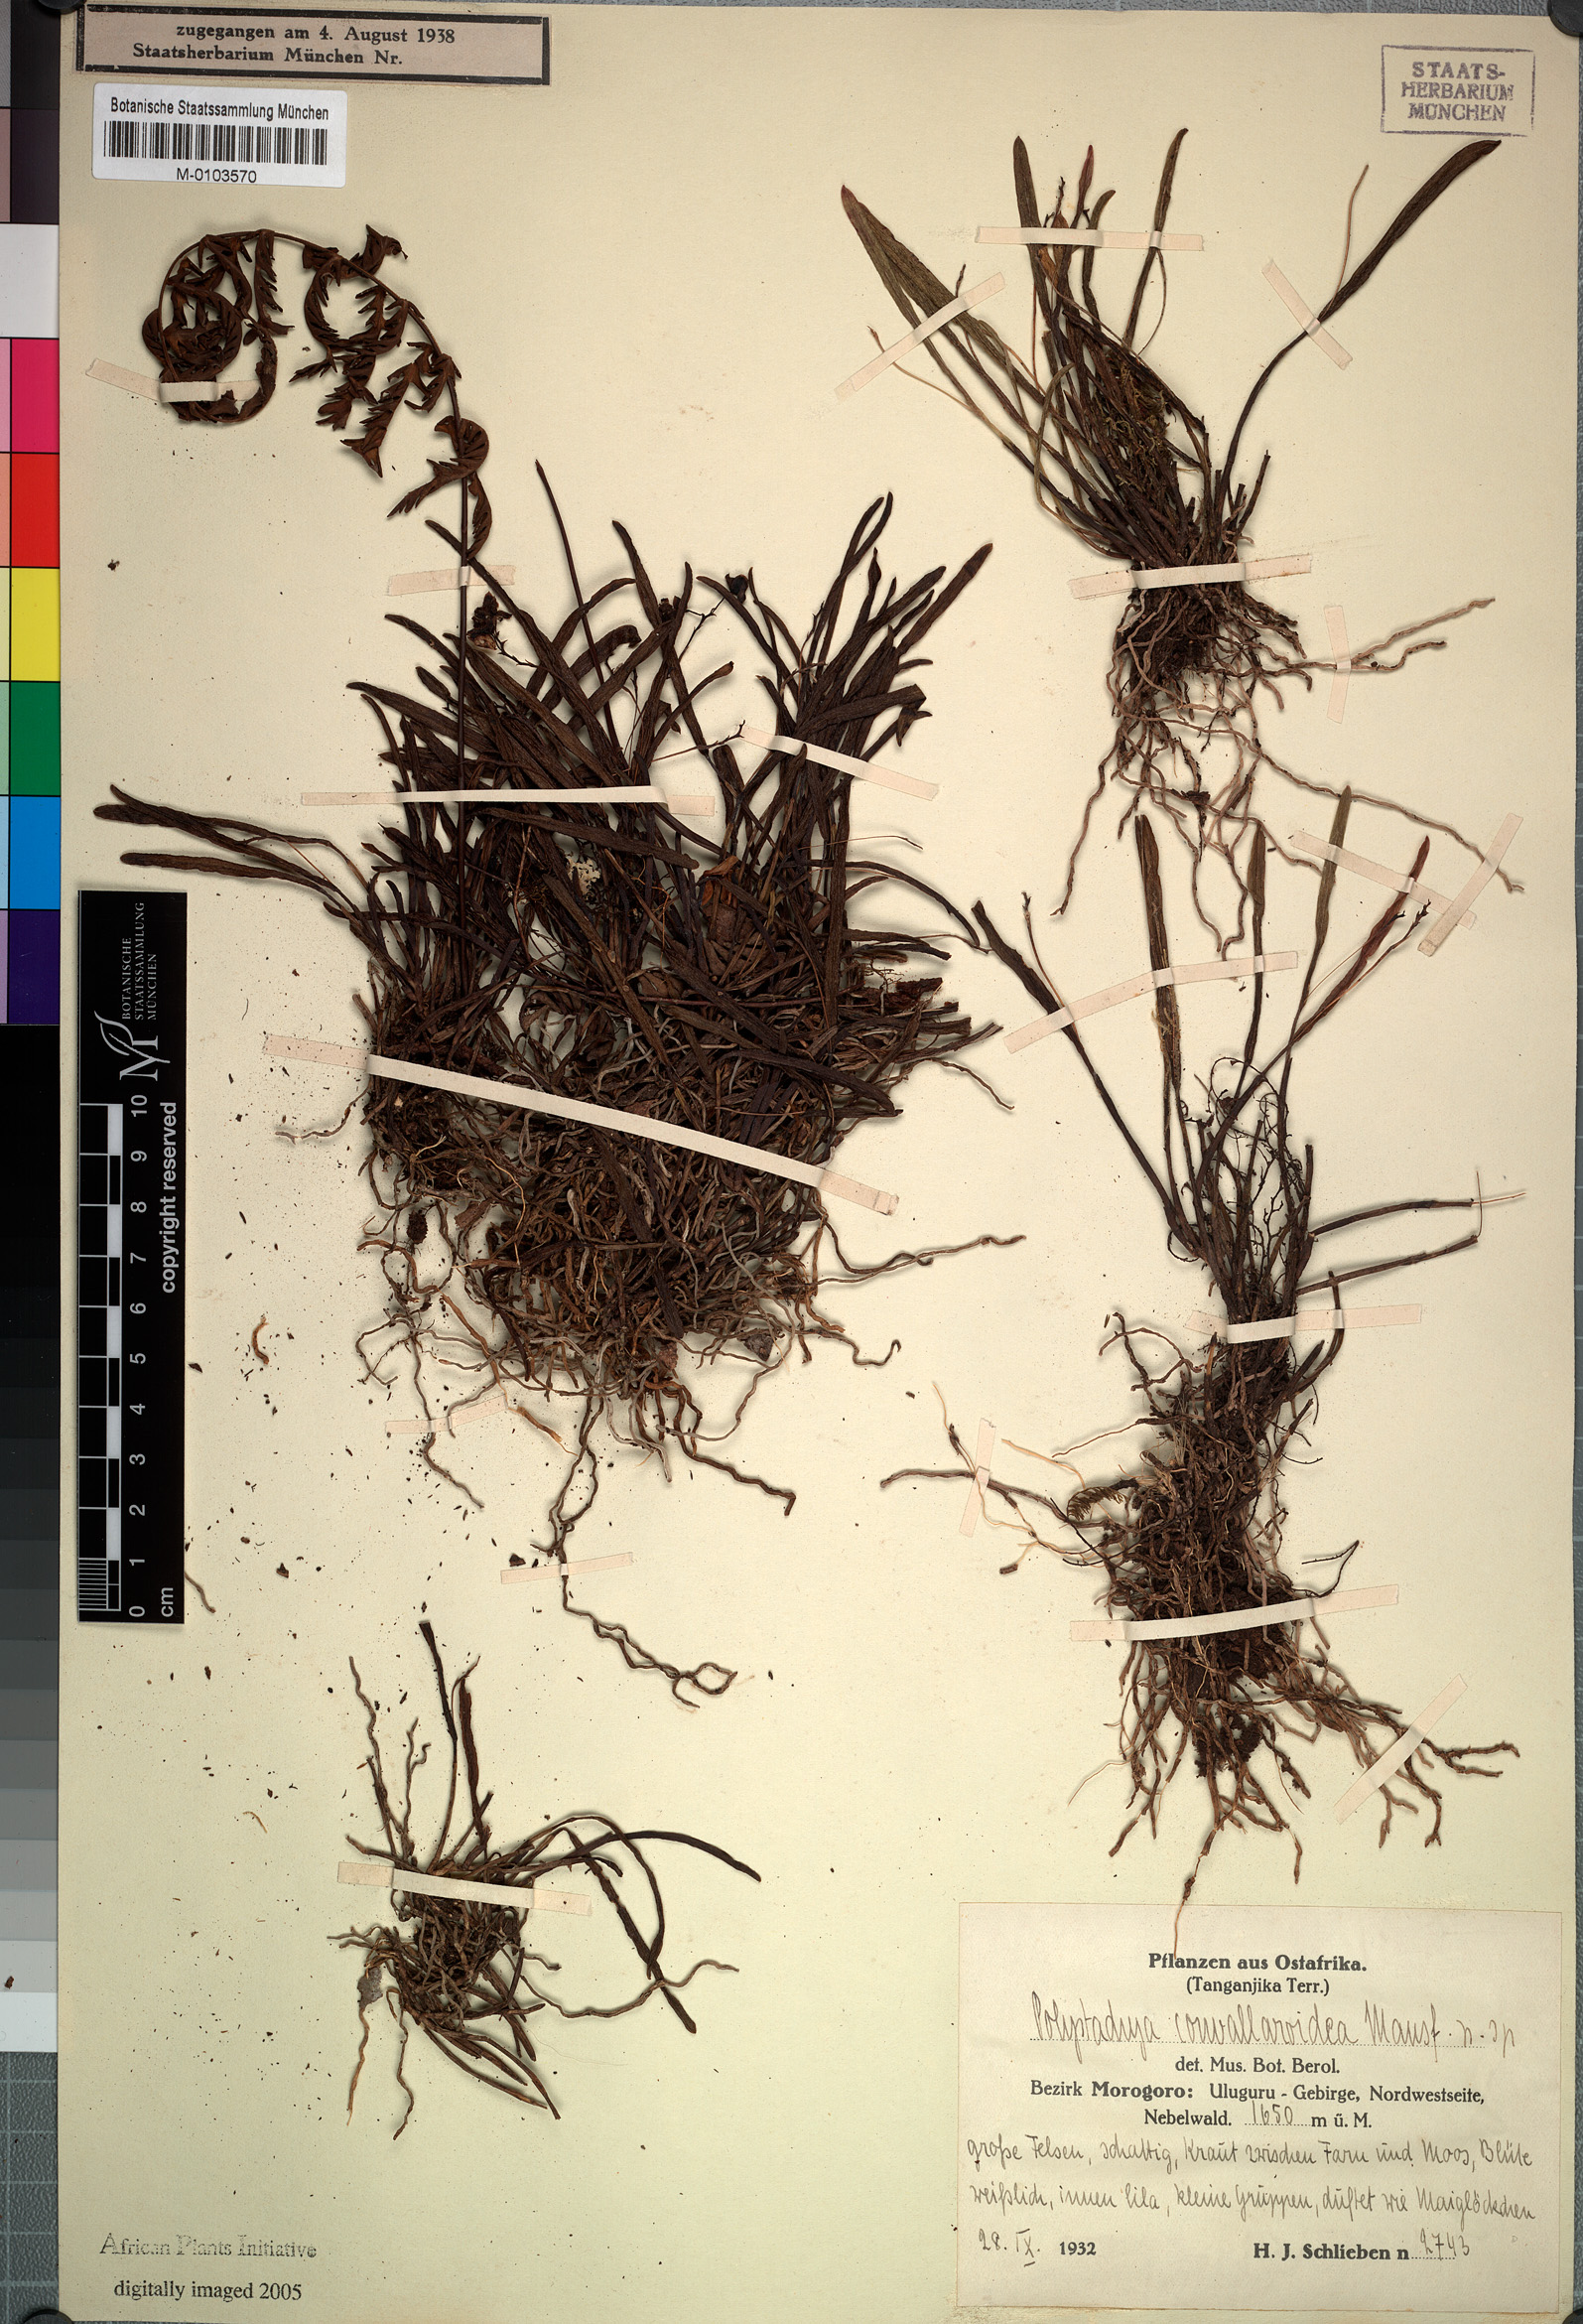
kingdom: Plantae
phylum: Tracheophyta
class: Liliopsida
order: Asparagales
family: Orchidaceae
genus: Polystachya
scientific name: Polystachya caespitifica
